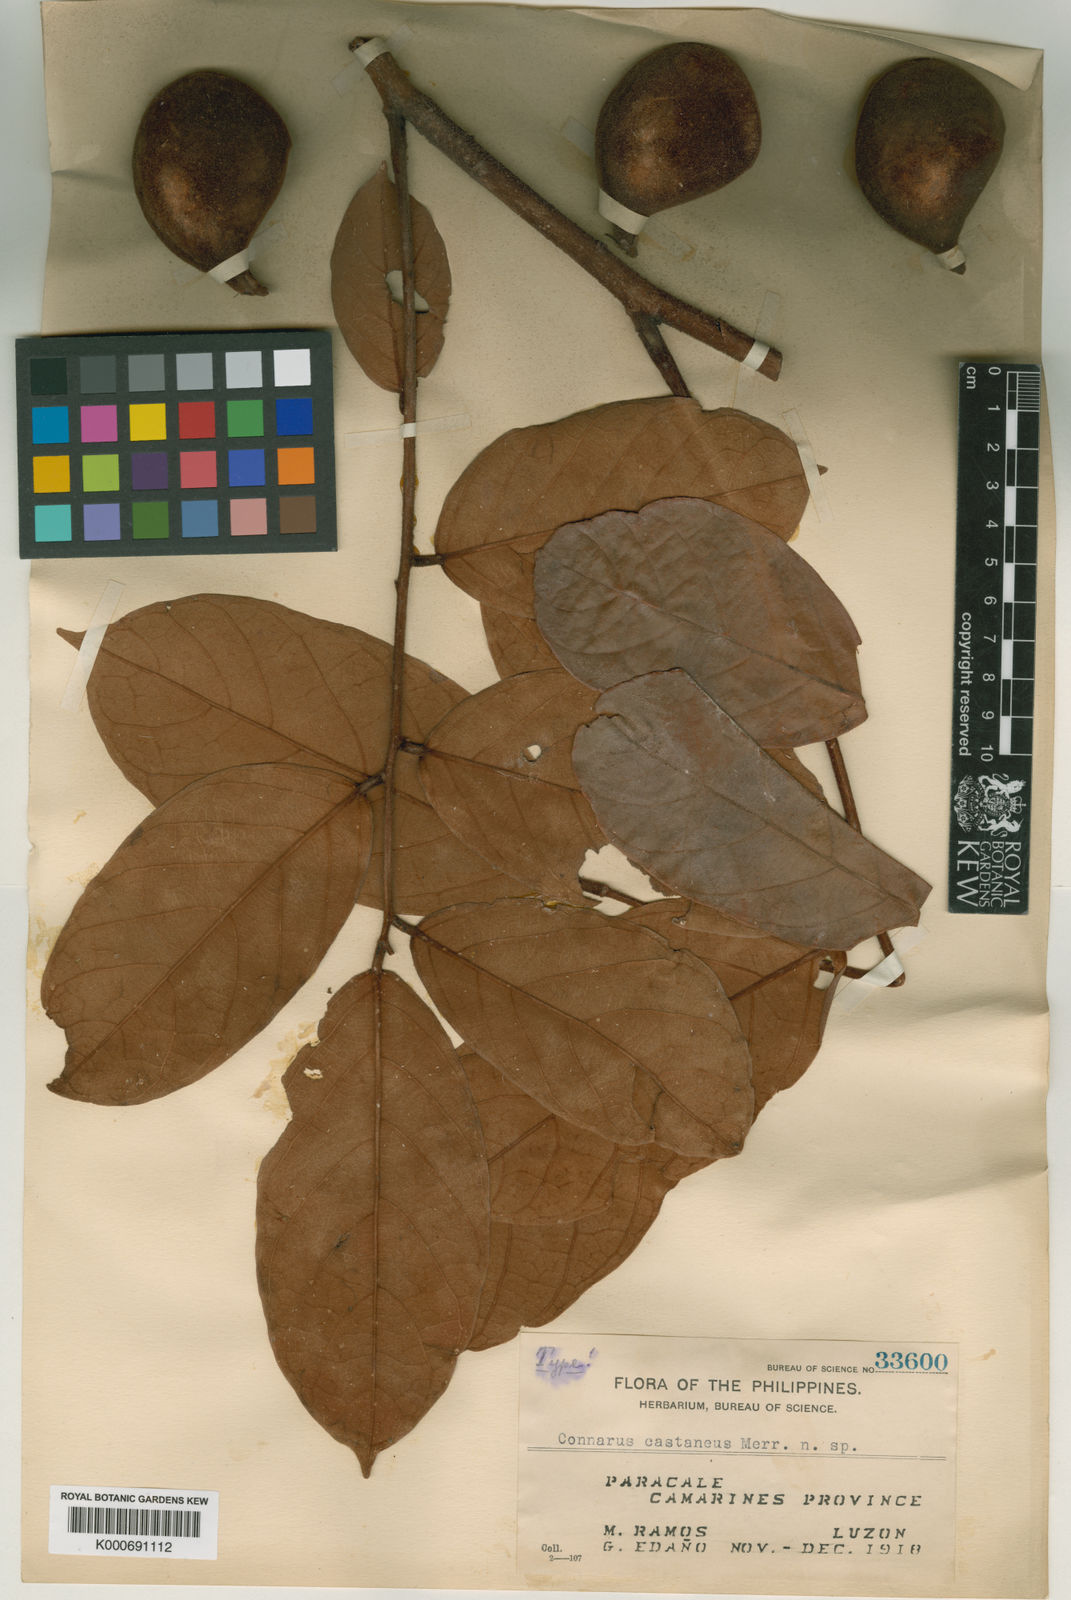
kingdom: Plantae
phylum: Tracheophyta
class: Magnoliopsida
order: Oxalidales
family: Connaraceae
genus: Connarus
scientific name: Connarus subinaequifolius
